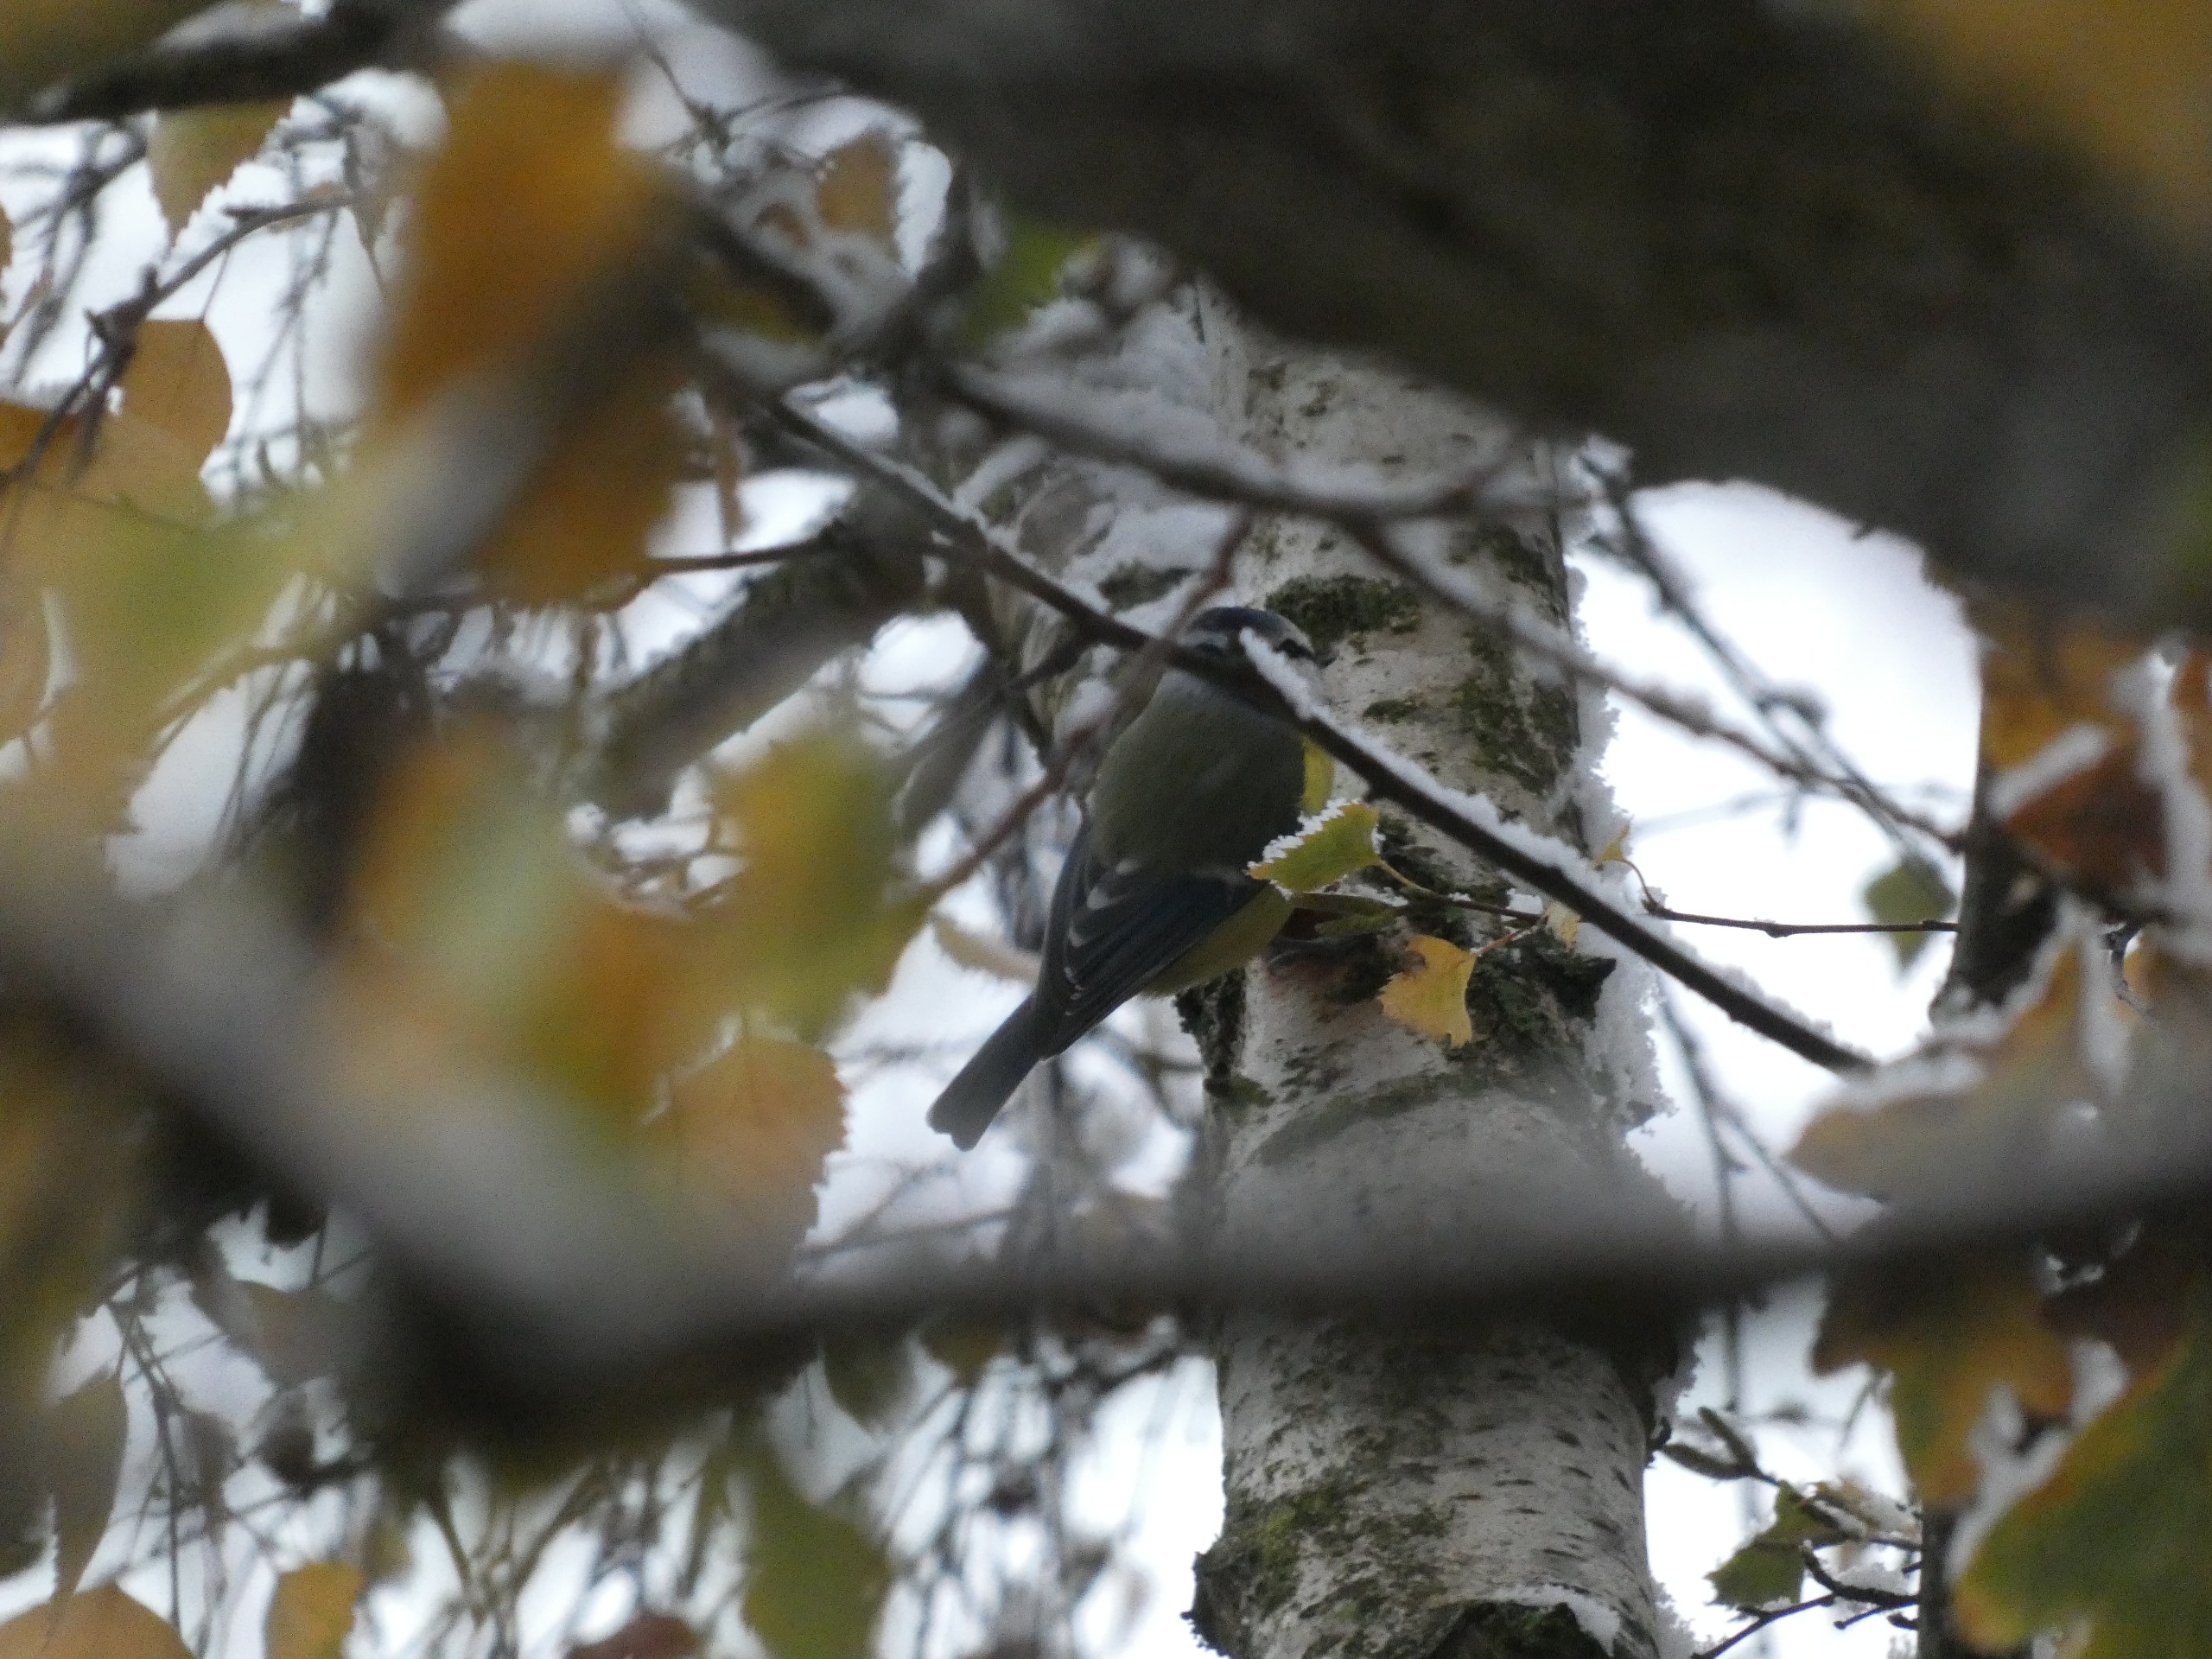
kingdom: Animalia
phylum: Chordata
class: Aves
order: Passeriformes
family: Paridae
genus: Cyanistes
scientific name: Cyanistes caeruleus
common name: Blåmejse
